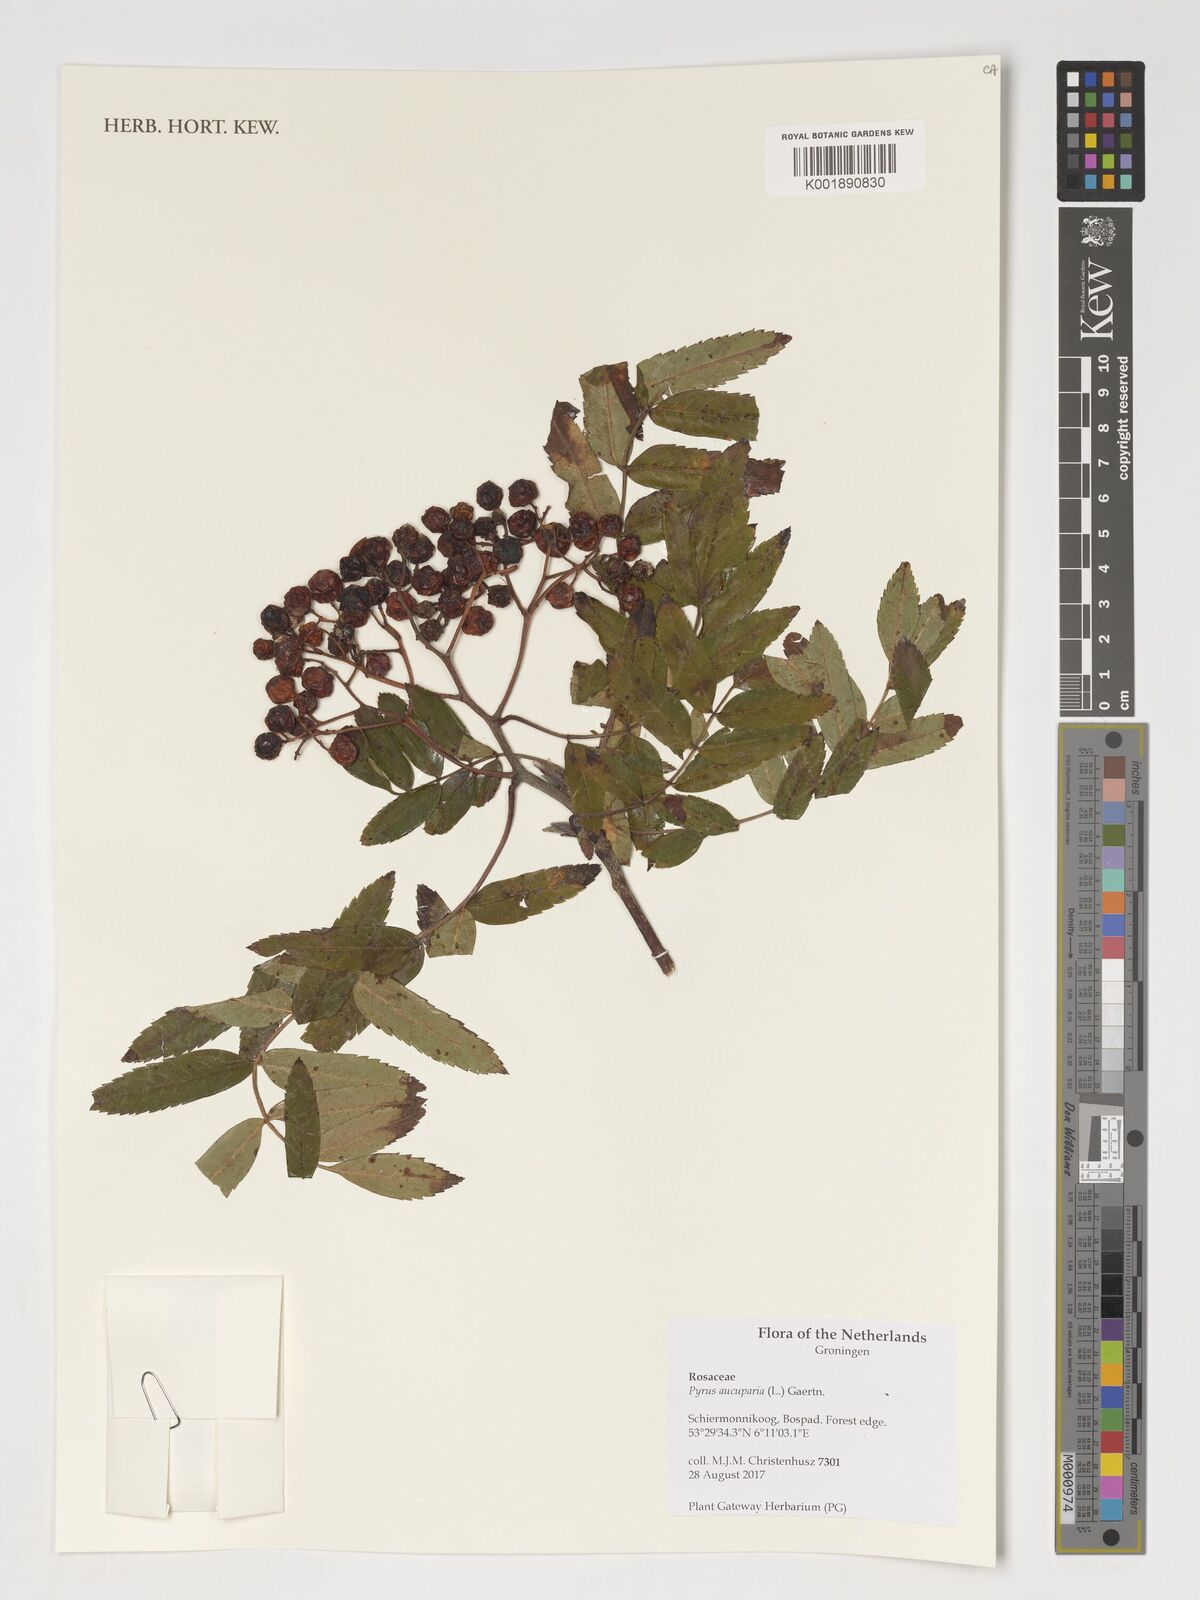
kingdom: Plantae
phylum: Tracheophyta
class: Magnoliopsida
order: Rosales
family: Rosaceae
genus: Sorbus
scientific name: Sorbus aucuparia
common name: Rowan
